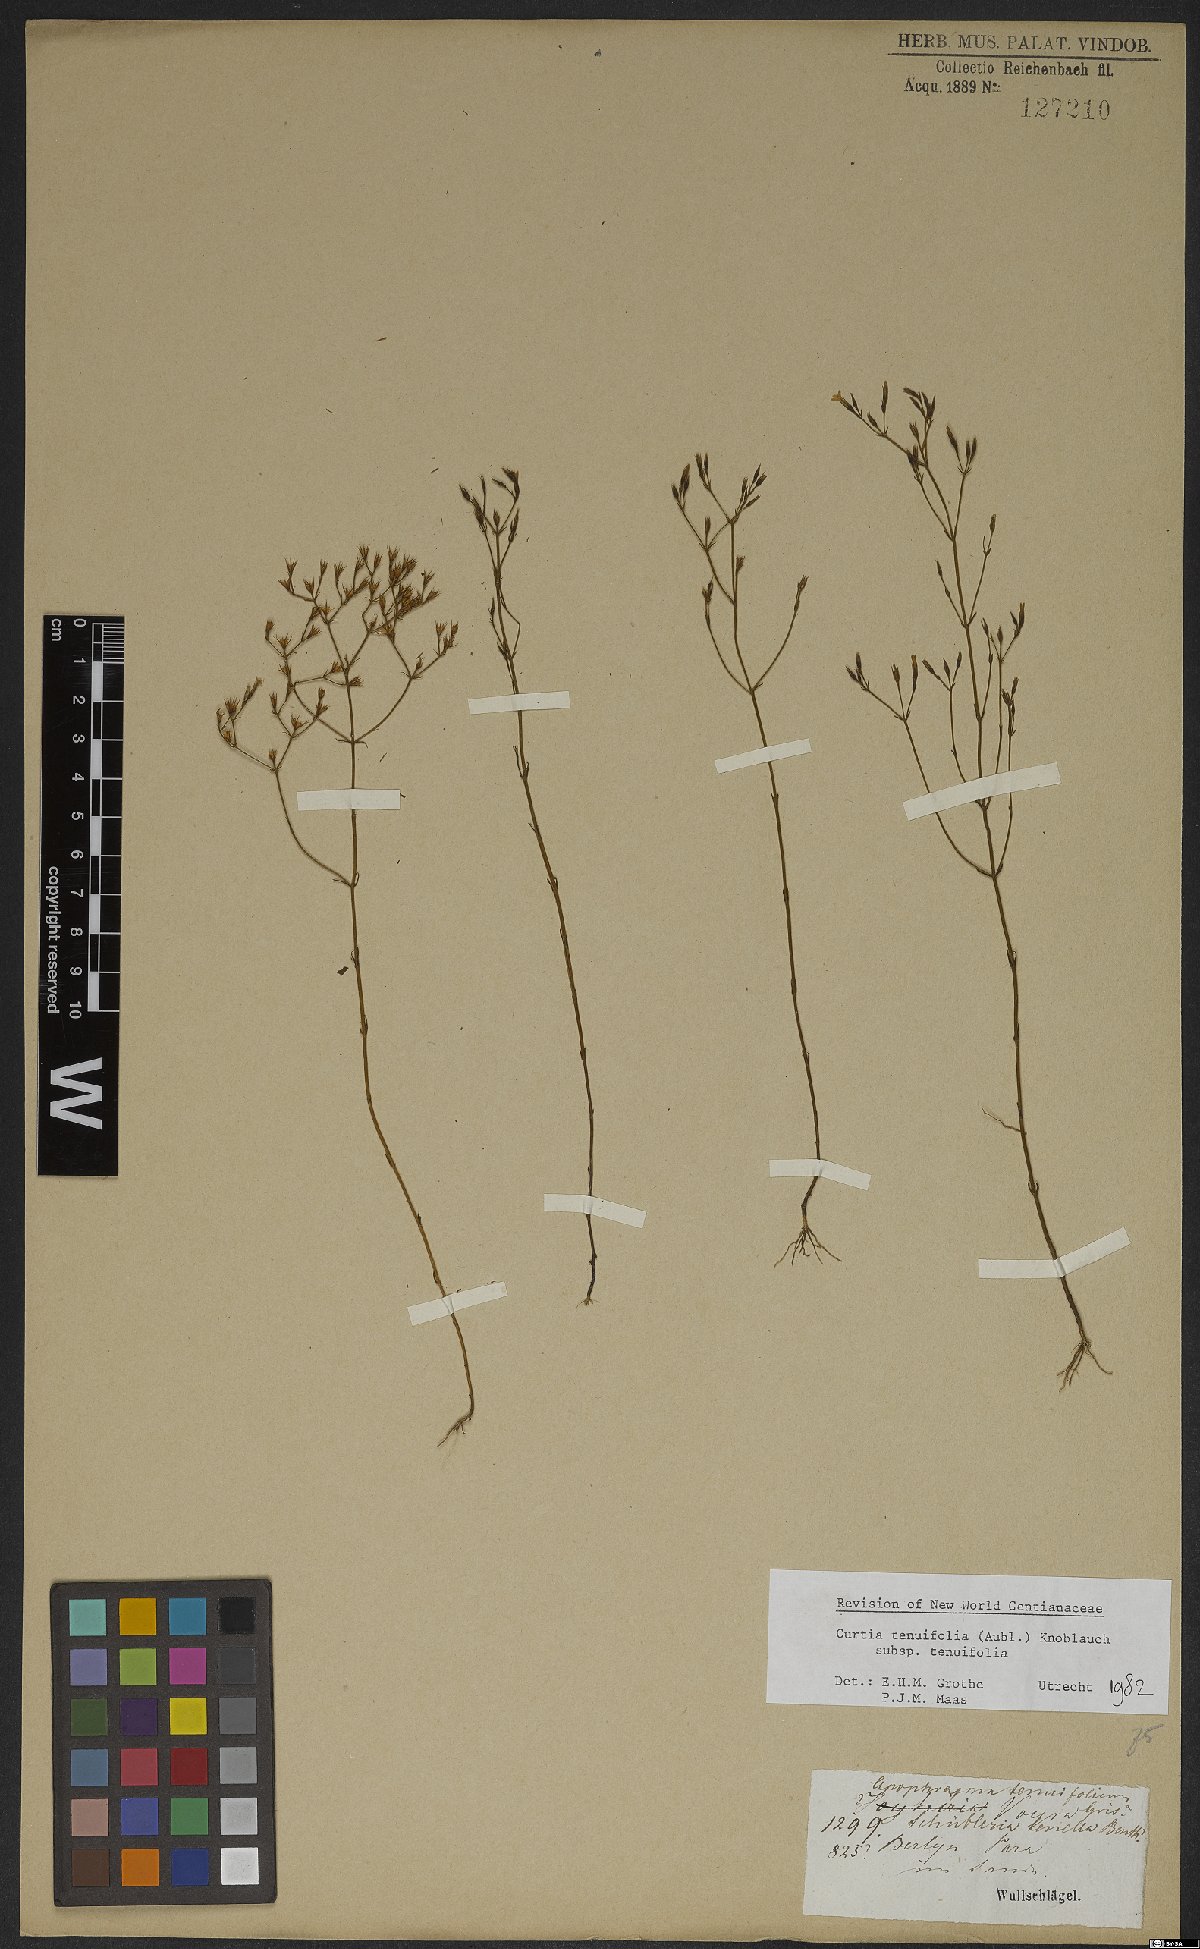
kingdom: Plantae
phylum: Tracheophyta
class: Magnoliopsida
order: Gentianales
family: Gentianaceae
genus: Curtia
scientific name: Curtia tenuifolia
